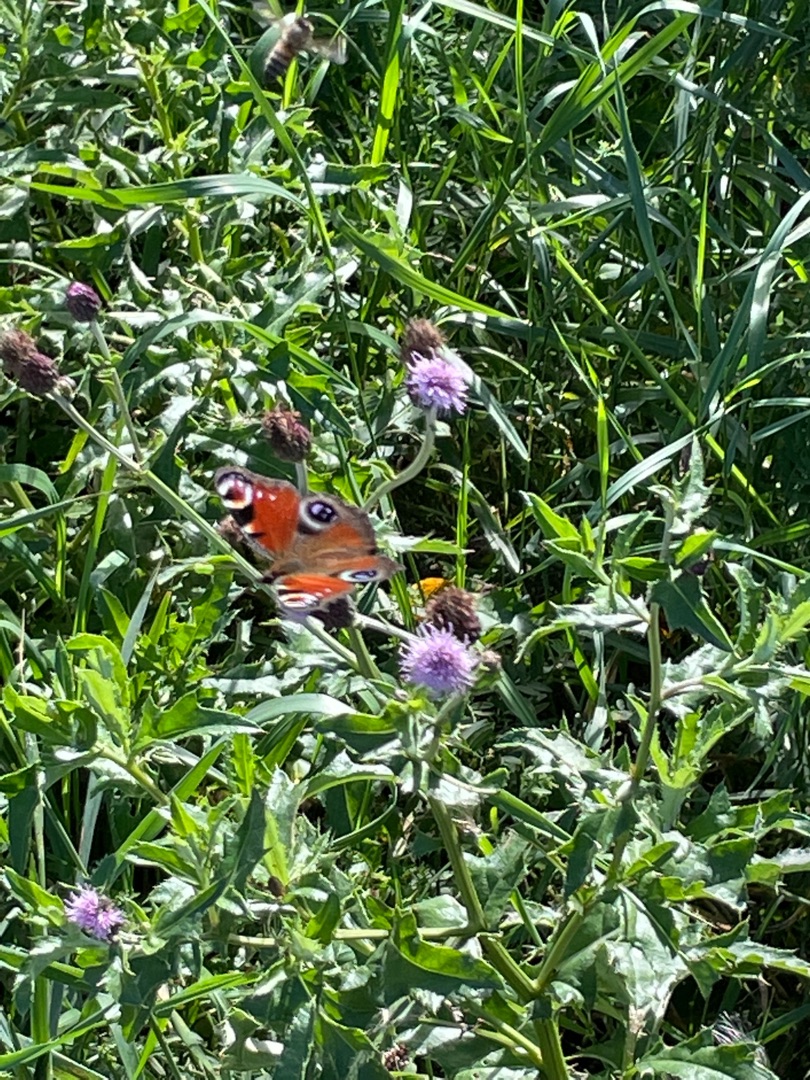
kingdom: Animalia
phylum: Arthropoda
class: Insecta
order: Lepidoptera
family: Nymphalidae
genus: Aglais
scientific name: Aglais io
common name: Dagpåfugleøje
